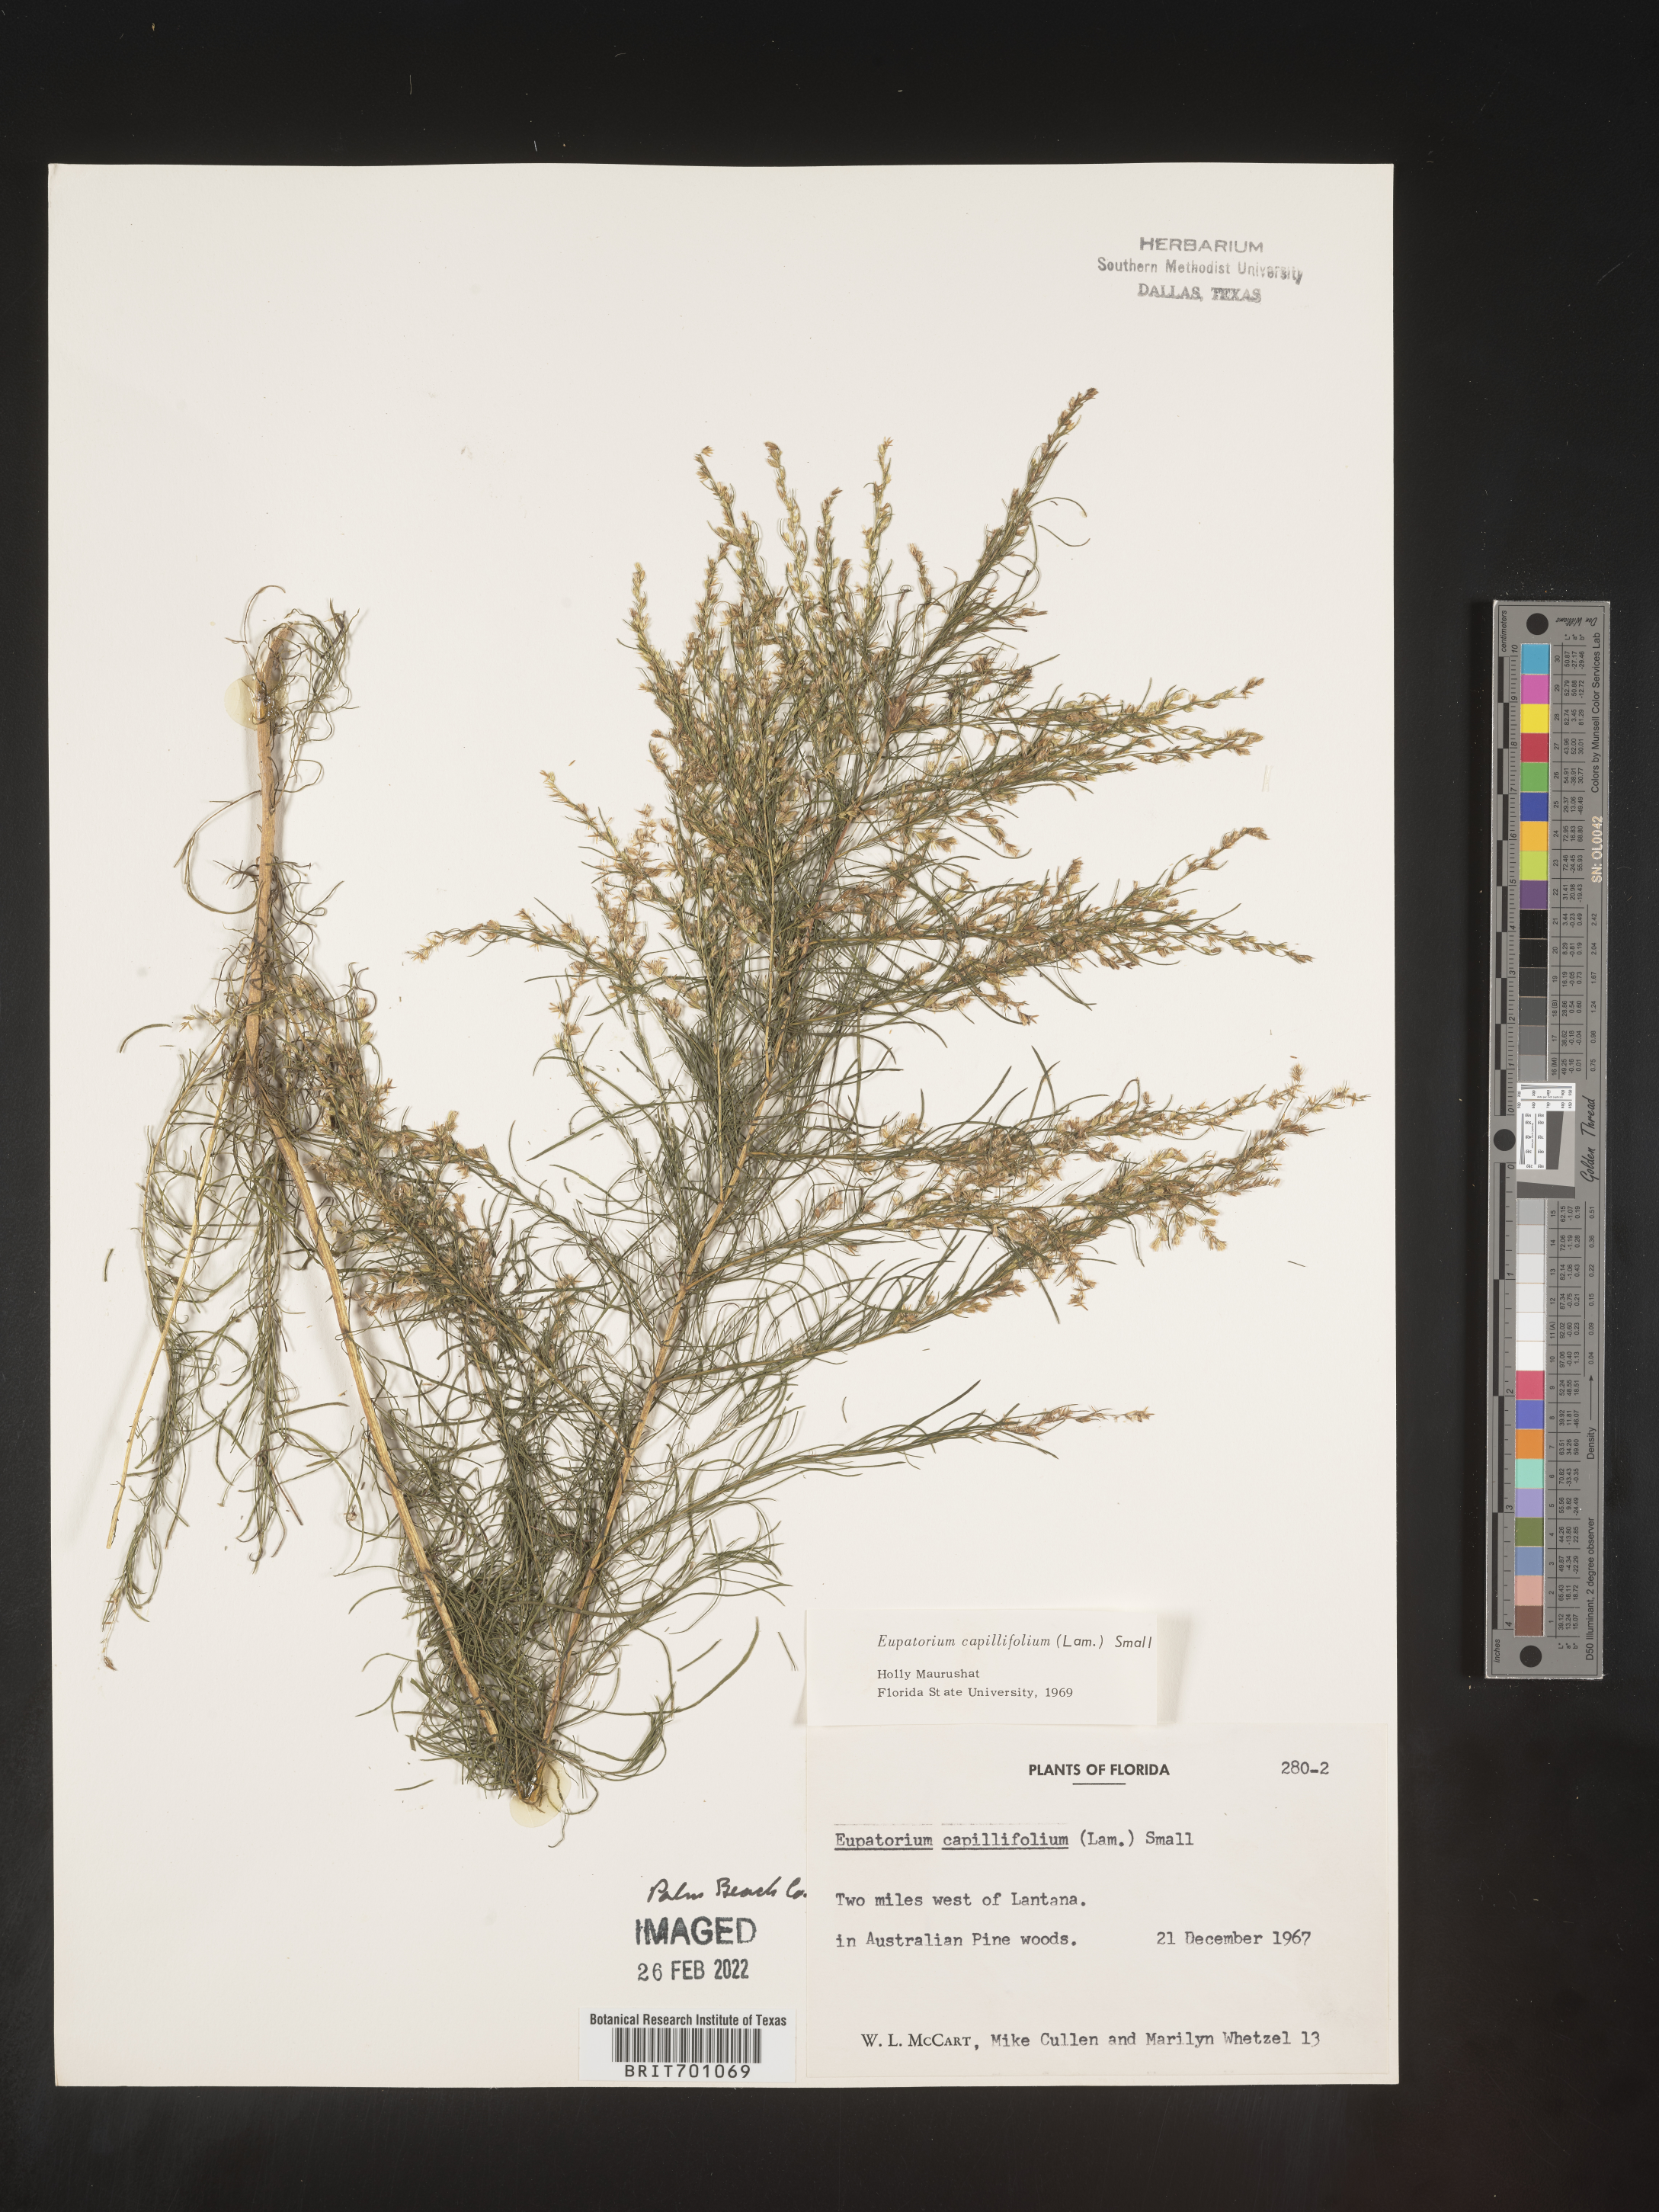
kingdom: Plantae
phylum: Tracheophyta
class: Magnoliopsida
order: Asterales
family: Asteraceae
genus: Eupatorium
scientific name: Eupatorium capillifolium
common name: Dog-fennel
